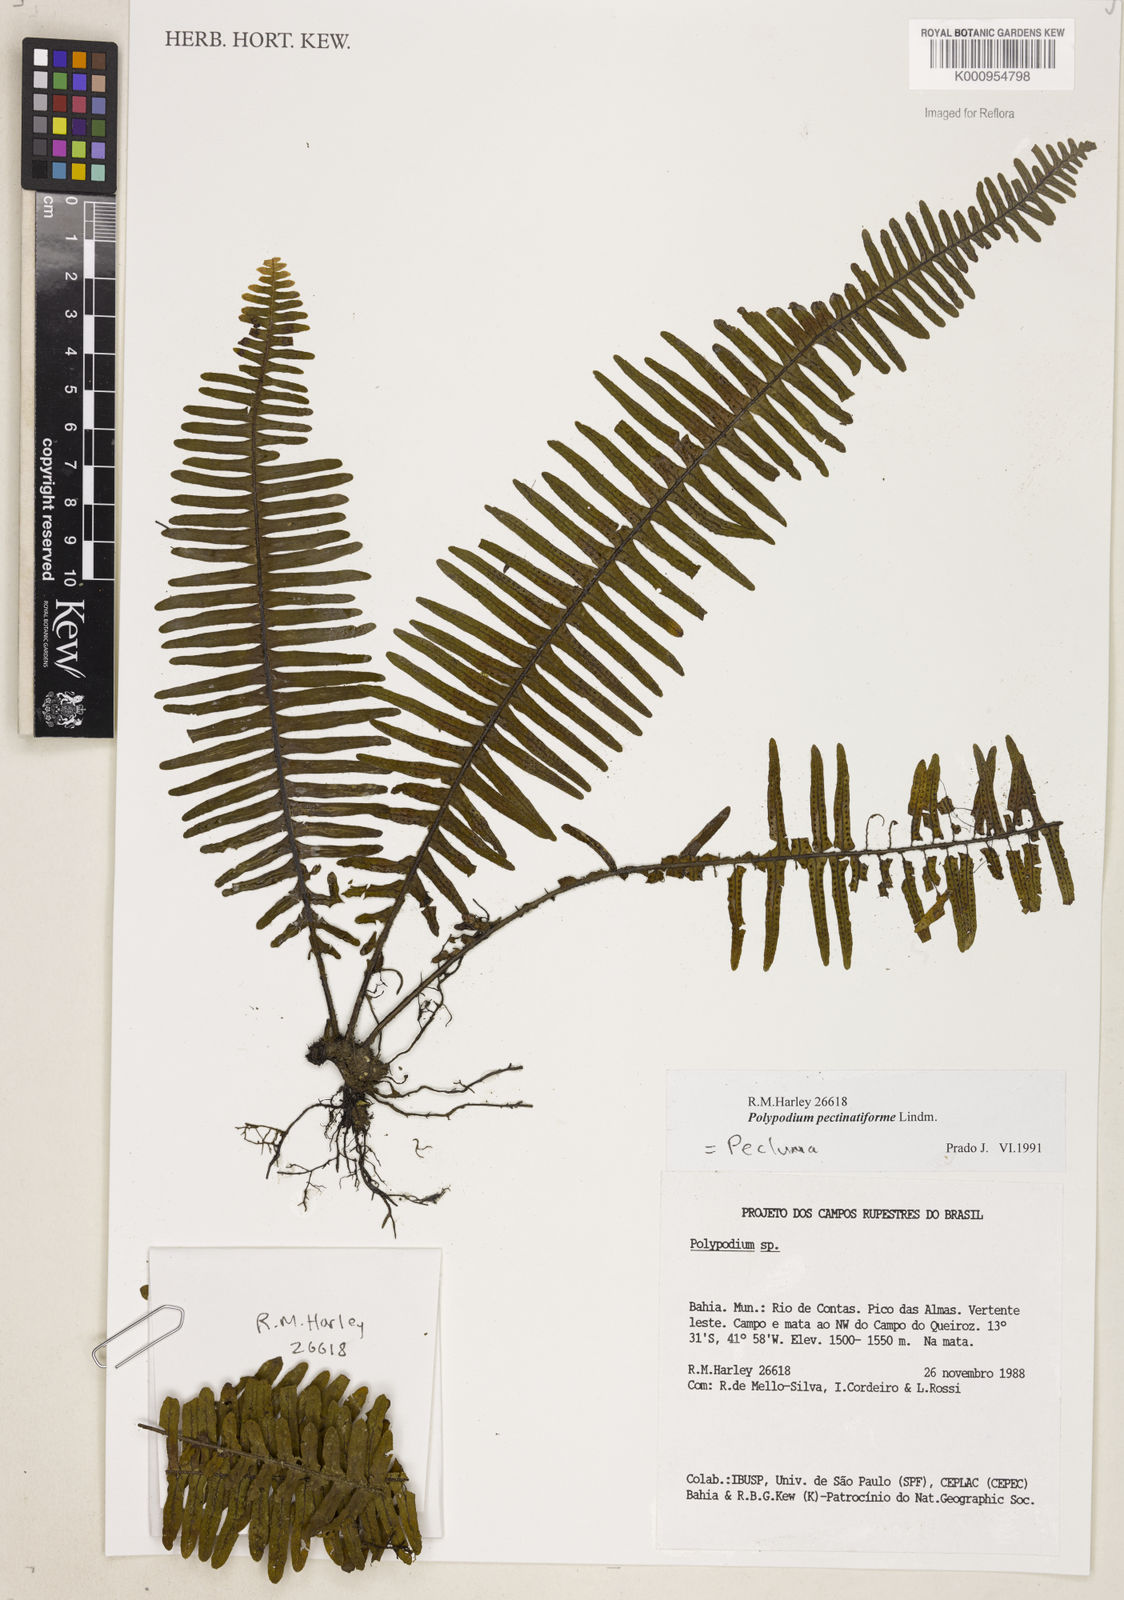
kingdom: Plantae
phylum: Tracheophyta
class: Polypodiopsida
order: Polypodiales
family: Polypodiaceae
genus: Pecluma
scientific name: Pecluma
